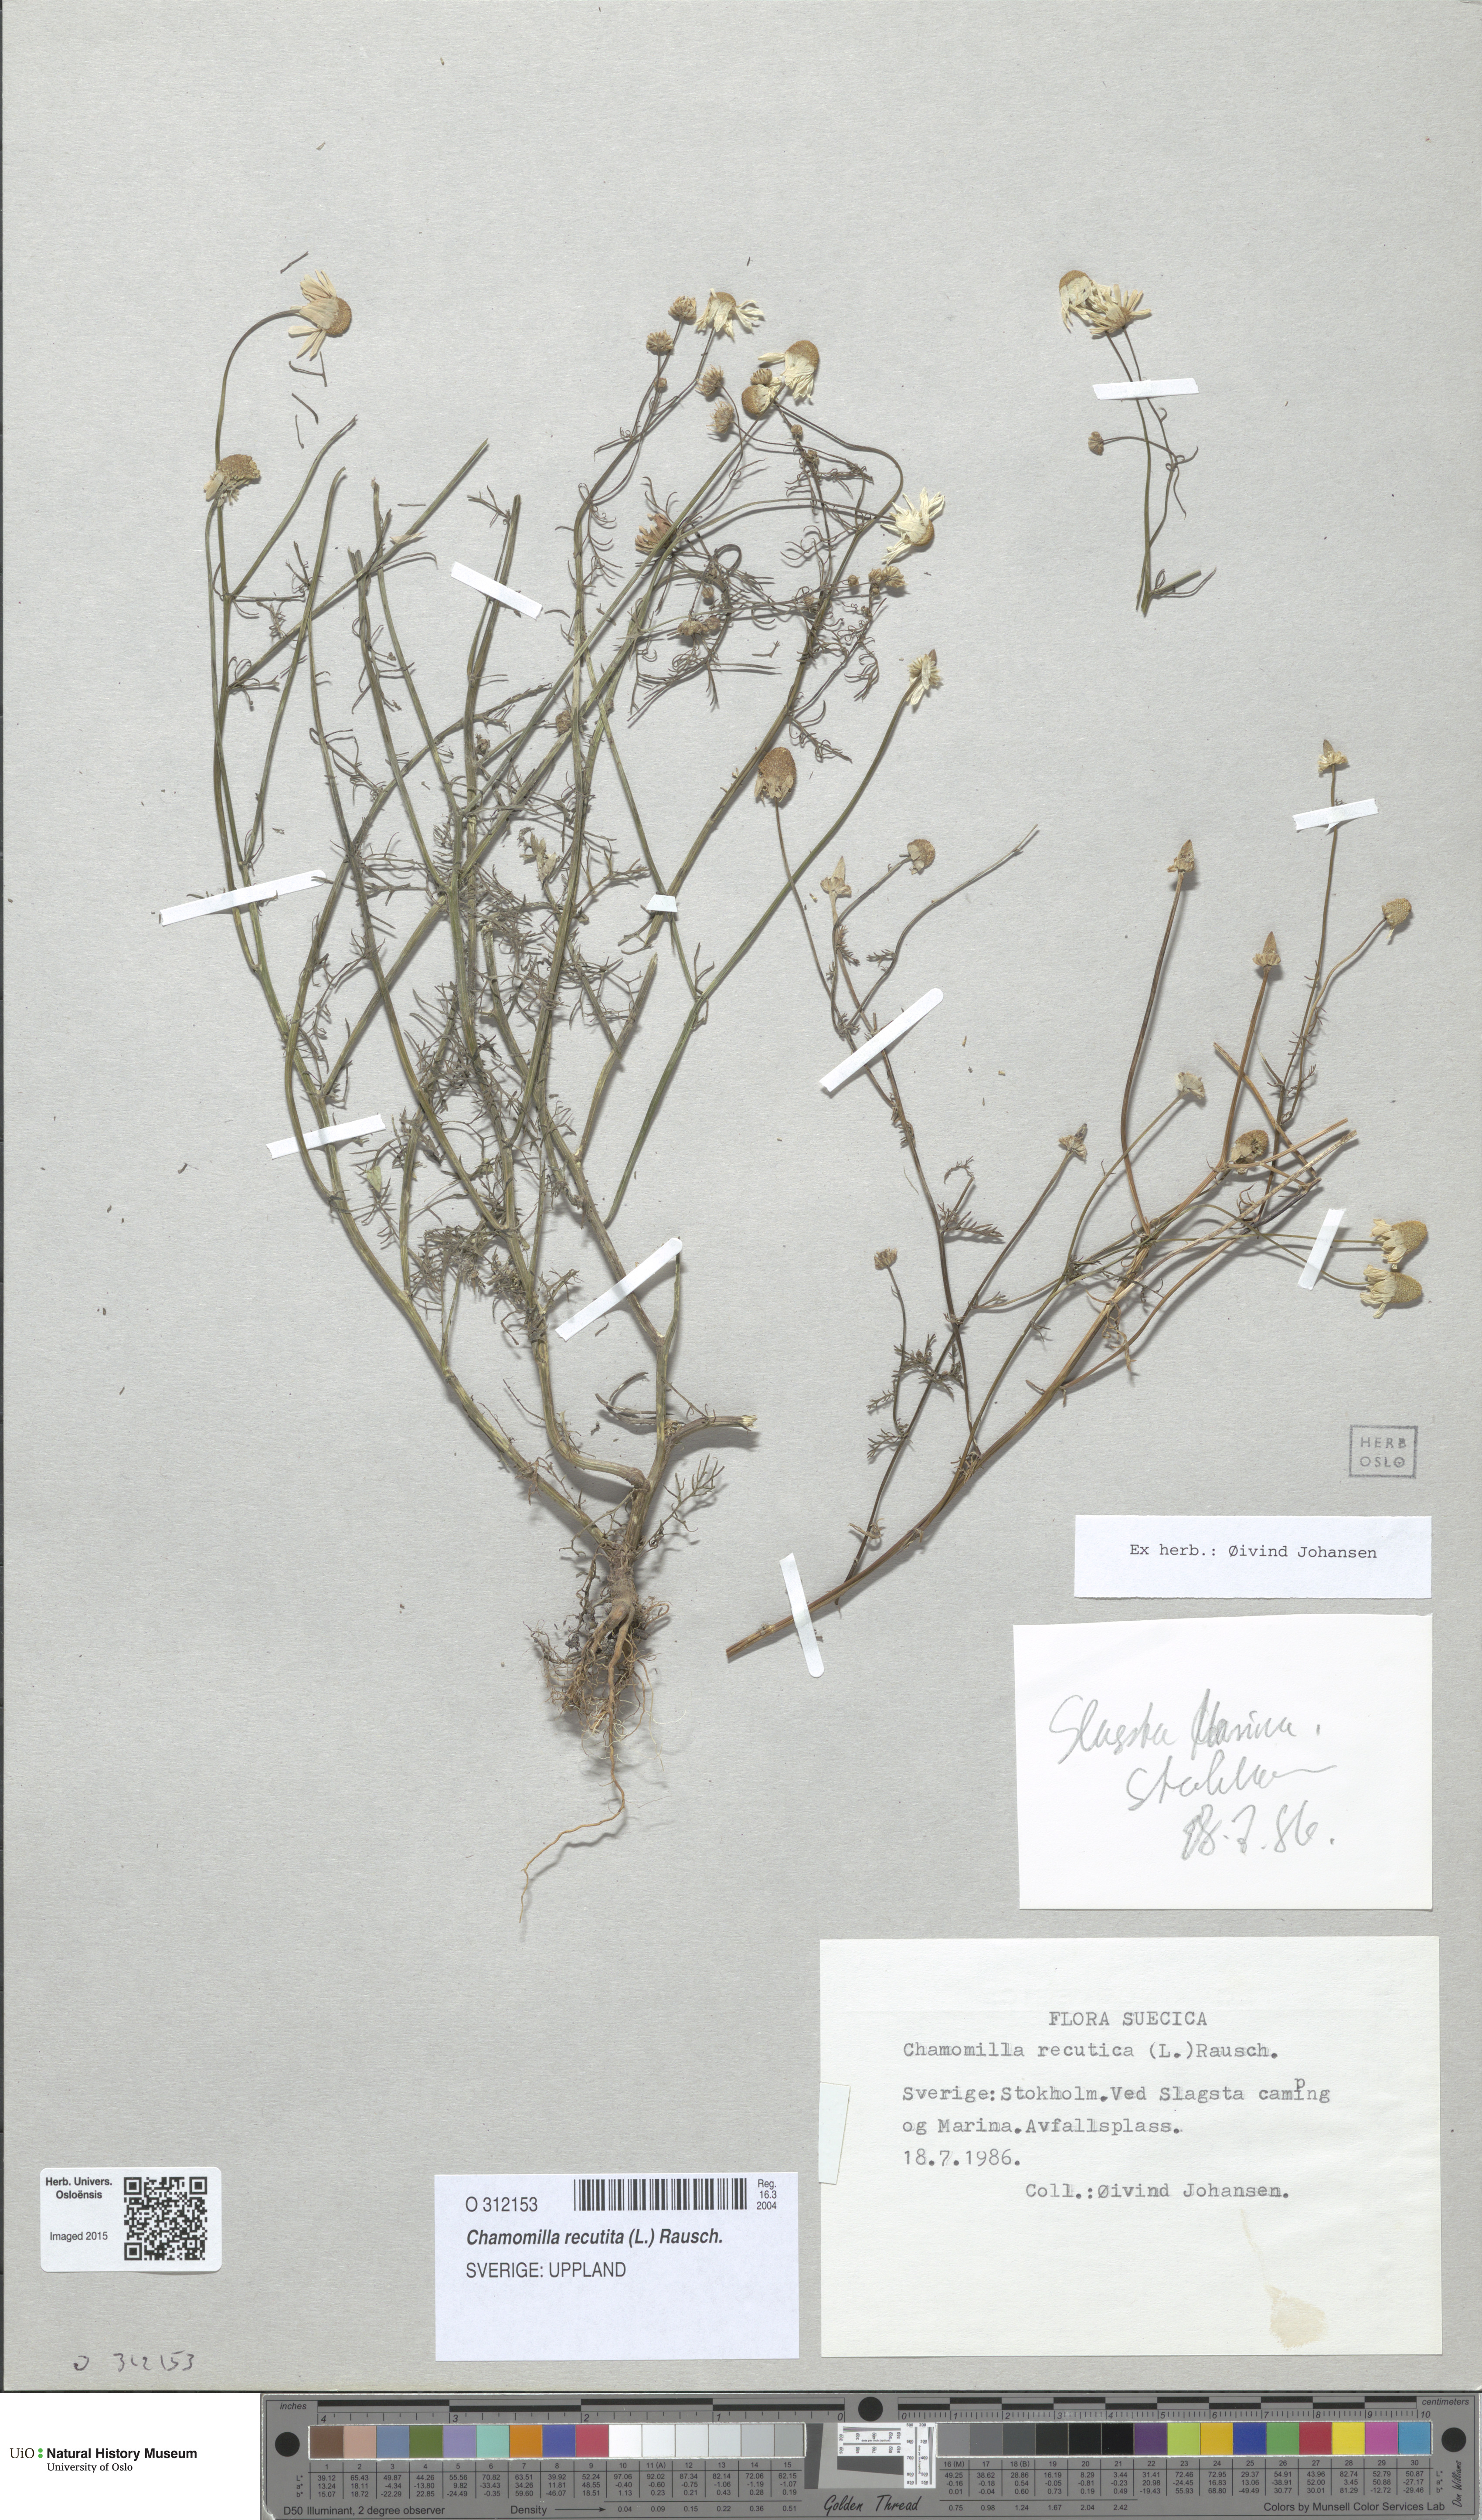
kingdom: Plantae
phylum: Tracheophyta
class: Magnoliopsida
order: Asterales
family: Asteraceae
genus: Matricaria
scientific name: Matricaria chamomilla
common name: Scented mayweed
